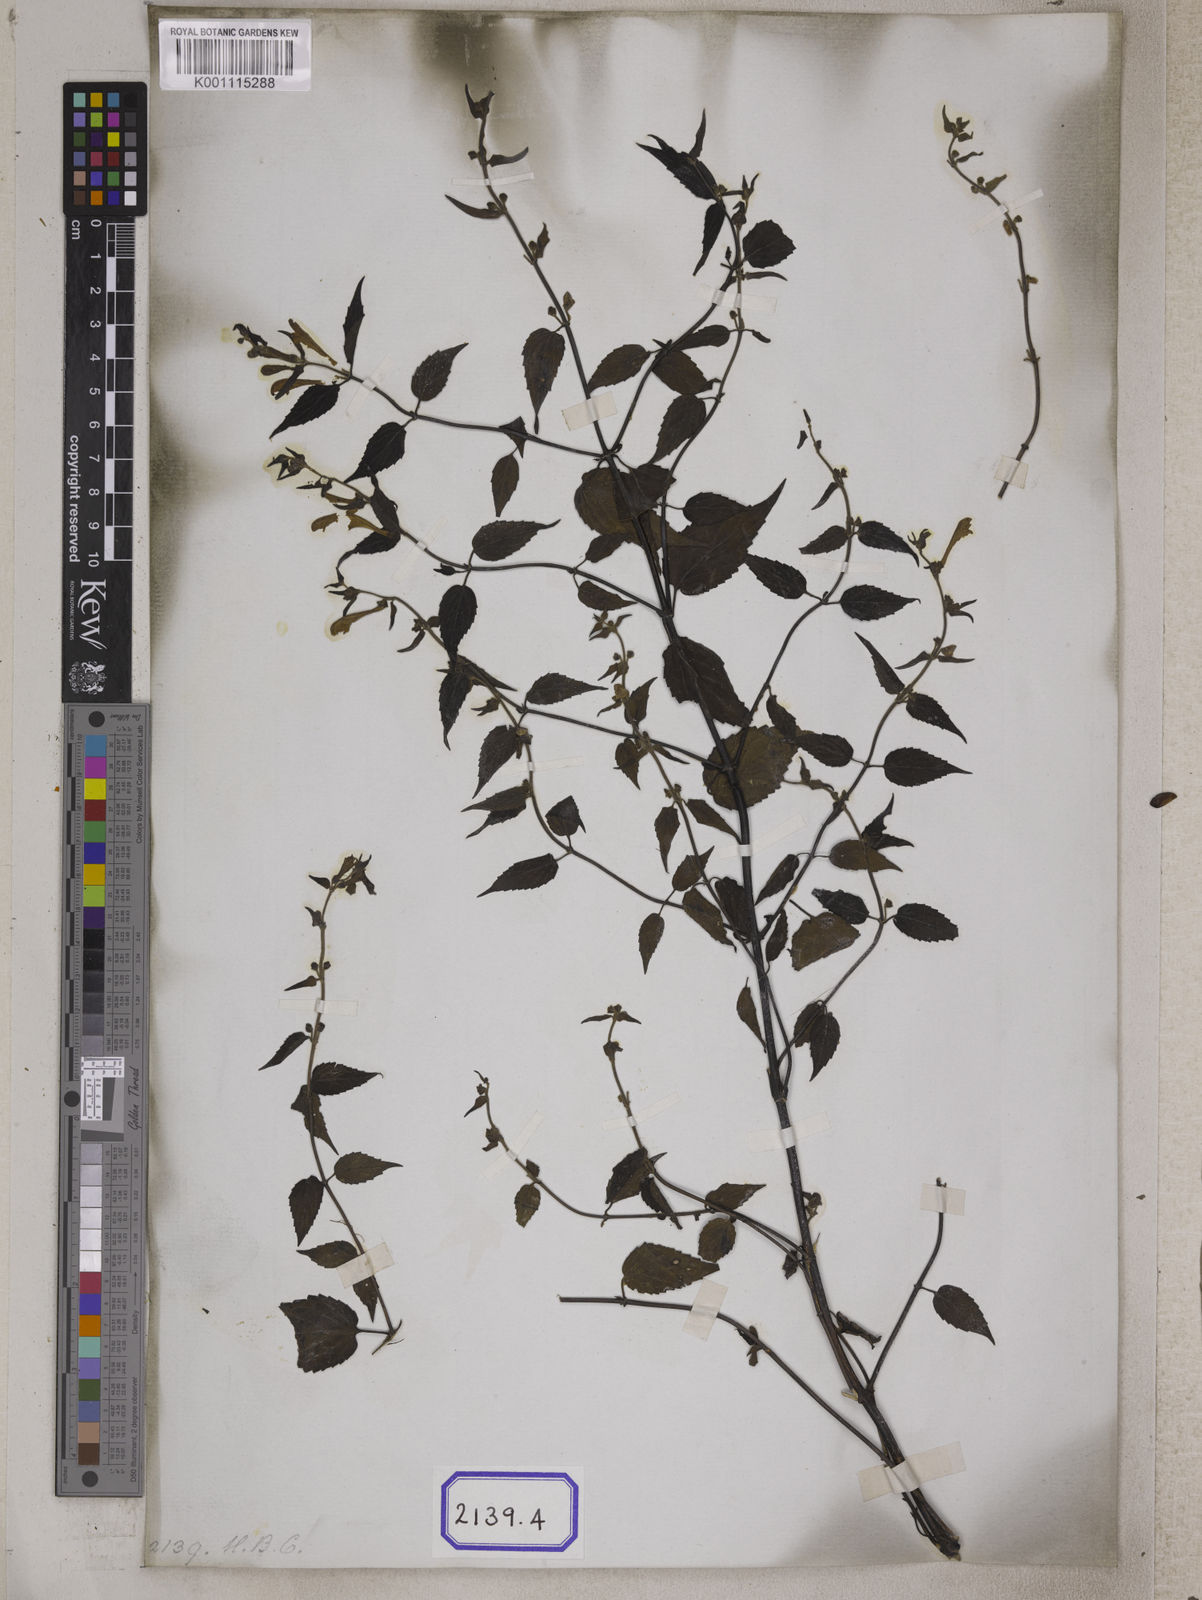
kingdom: Plantae
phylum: Tracheophyta
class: Magnoliopsida
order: Lamiales
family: Lamiaceae
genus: Scutellaria
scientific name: Scutellaria scandens
